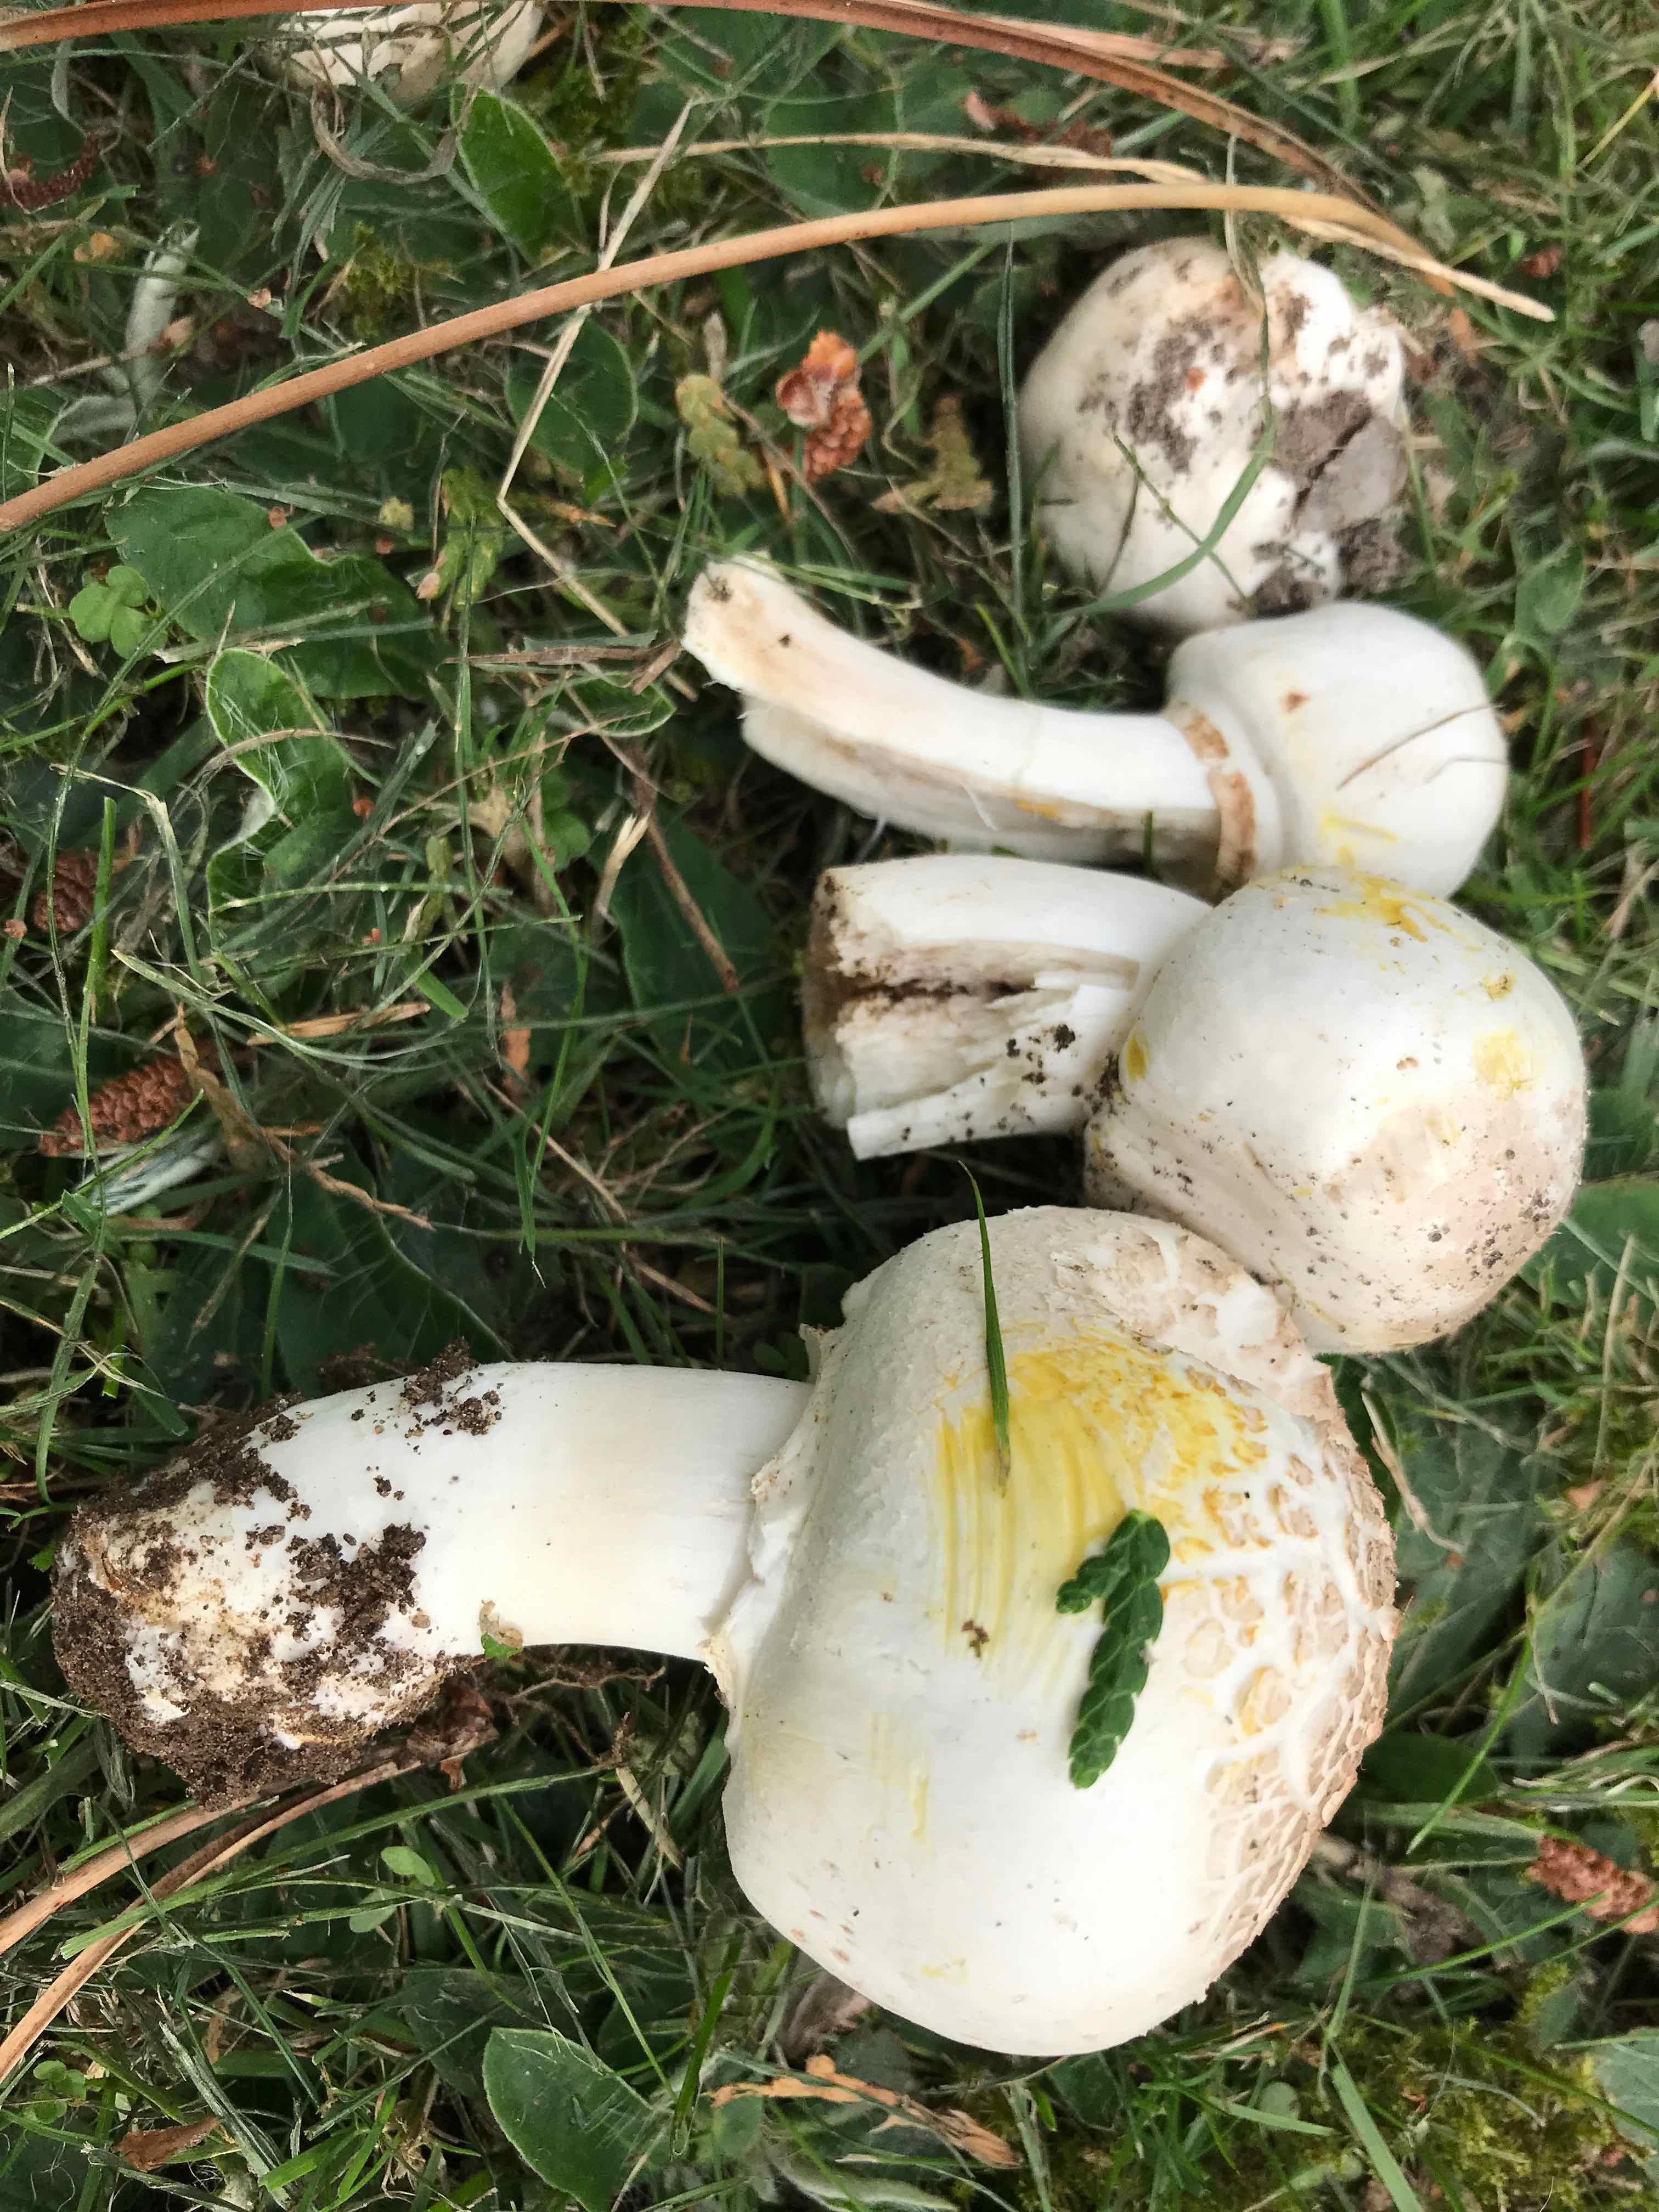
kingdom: Fungi
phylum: Basidiomycota
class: Agaricomycetes
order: Agaricales
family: Agaricaceae
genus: Agaricus
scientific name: Agaricus xanthodermus
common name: karbol-champignon
